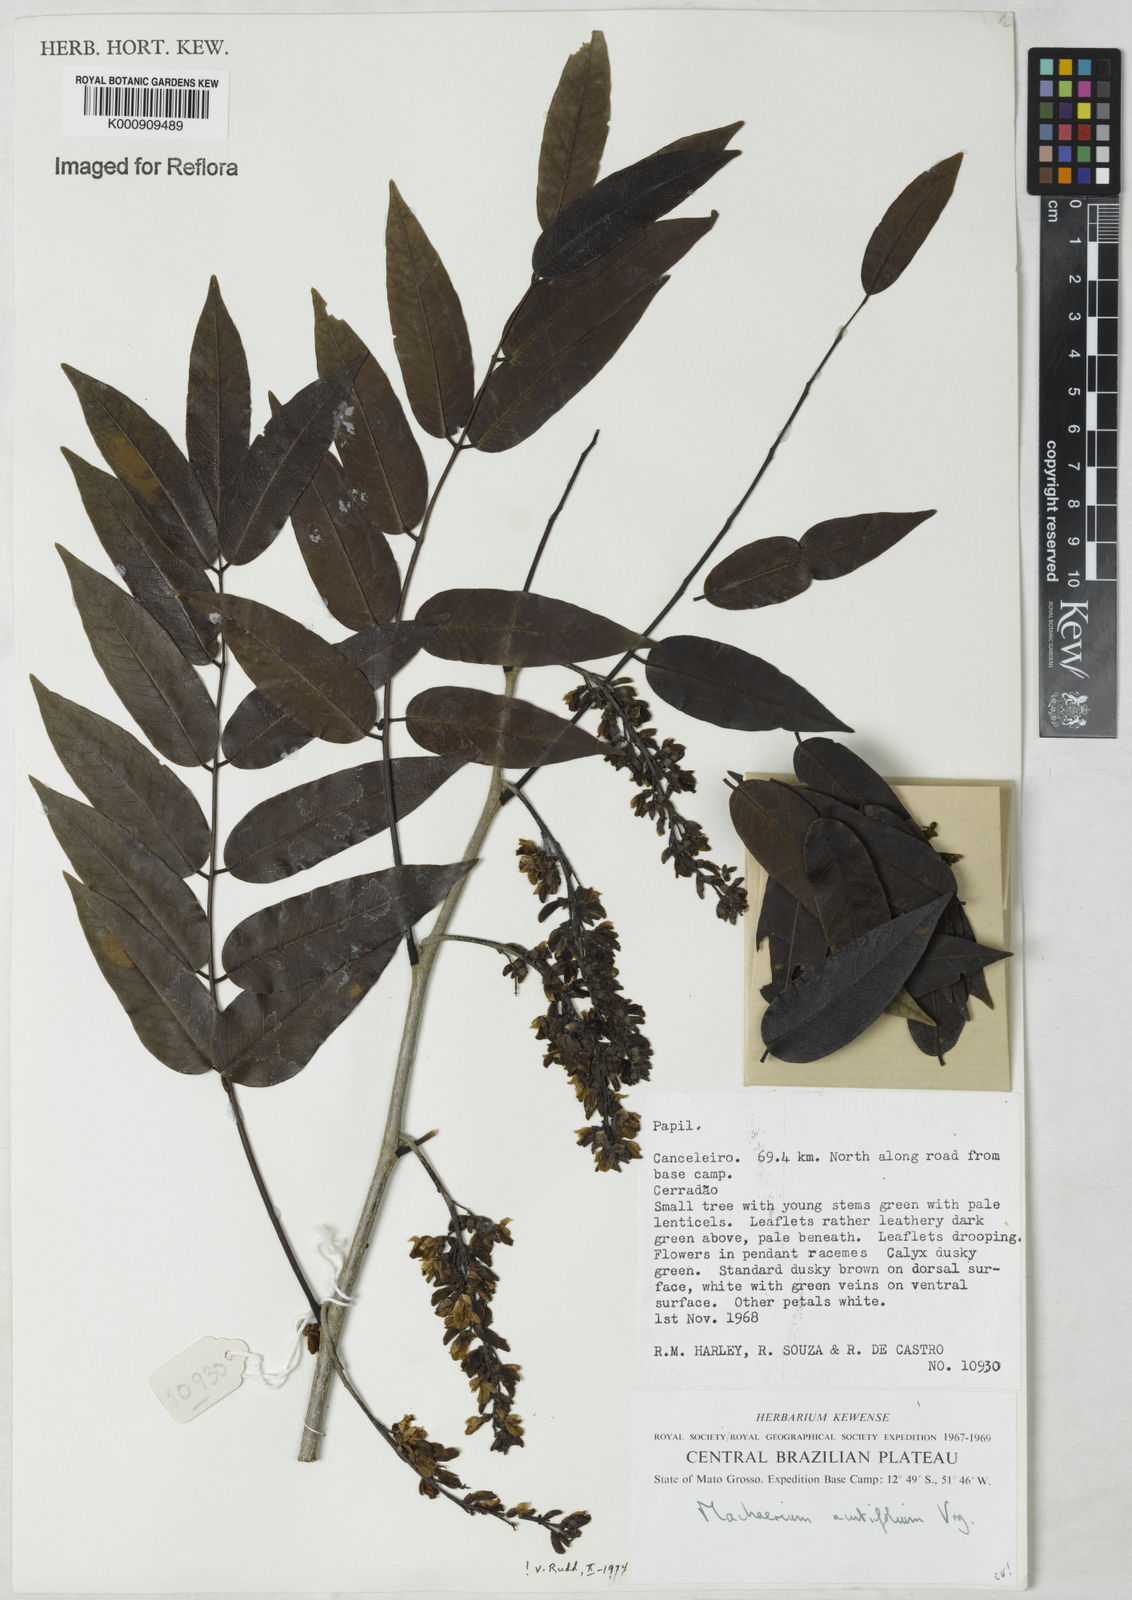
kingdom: Plantae
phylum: Tracheophyta
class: Magnoliopsida
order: Fabales
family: Fabaceae
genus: Machaerium
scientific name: Machaerium acutifolium
